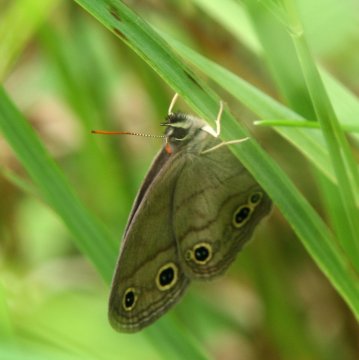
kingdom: Animalia
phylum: Arthropoda
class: Insecta
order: Lepidoptera
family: Nymphalidae
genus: Euptychia
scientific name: Euptychia cymela
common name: Little Wood Satyr
